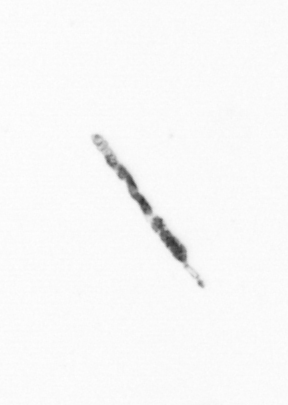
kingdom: Chromista
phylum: Ochrophyta
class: Bacillariophyceae
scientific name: Bacillariophyceae
